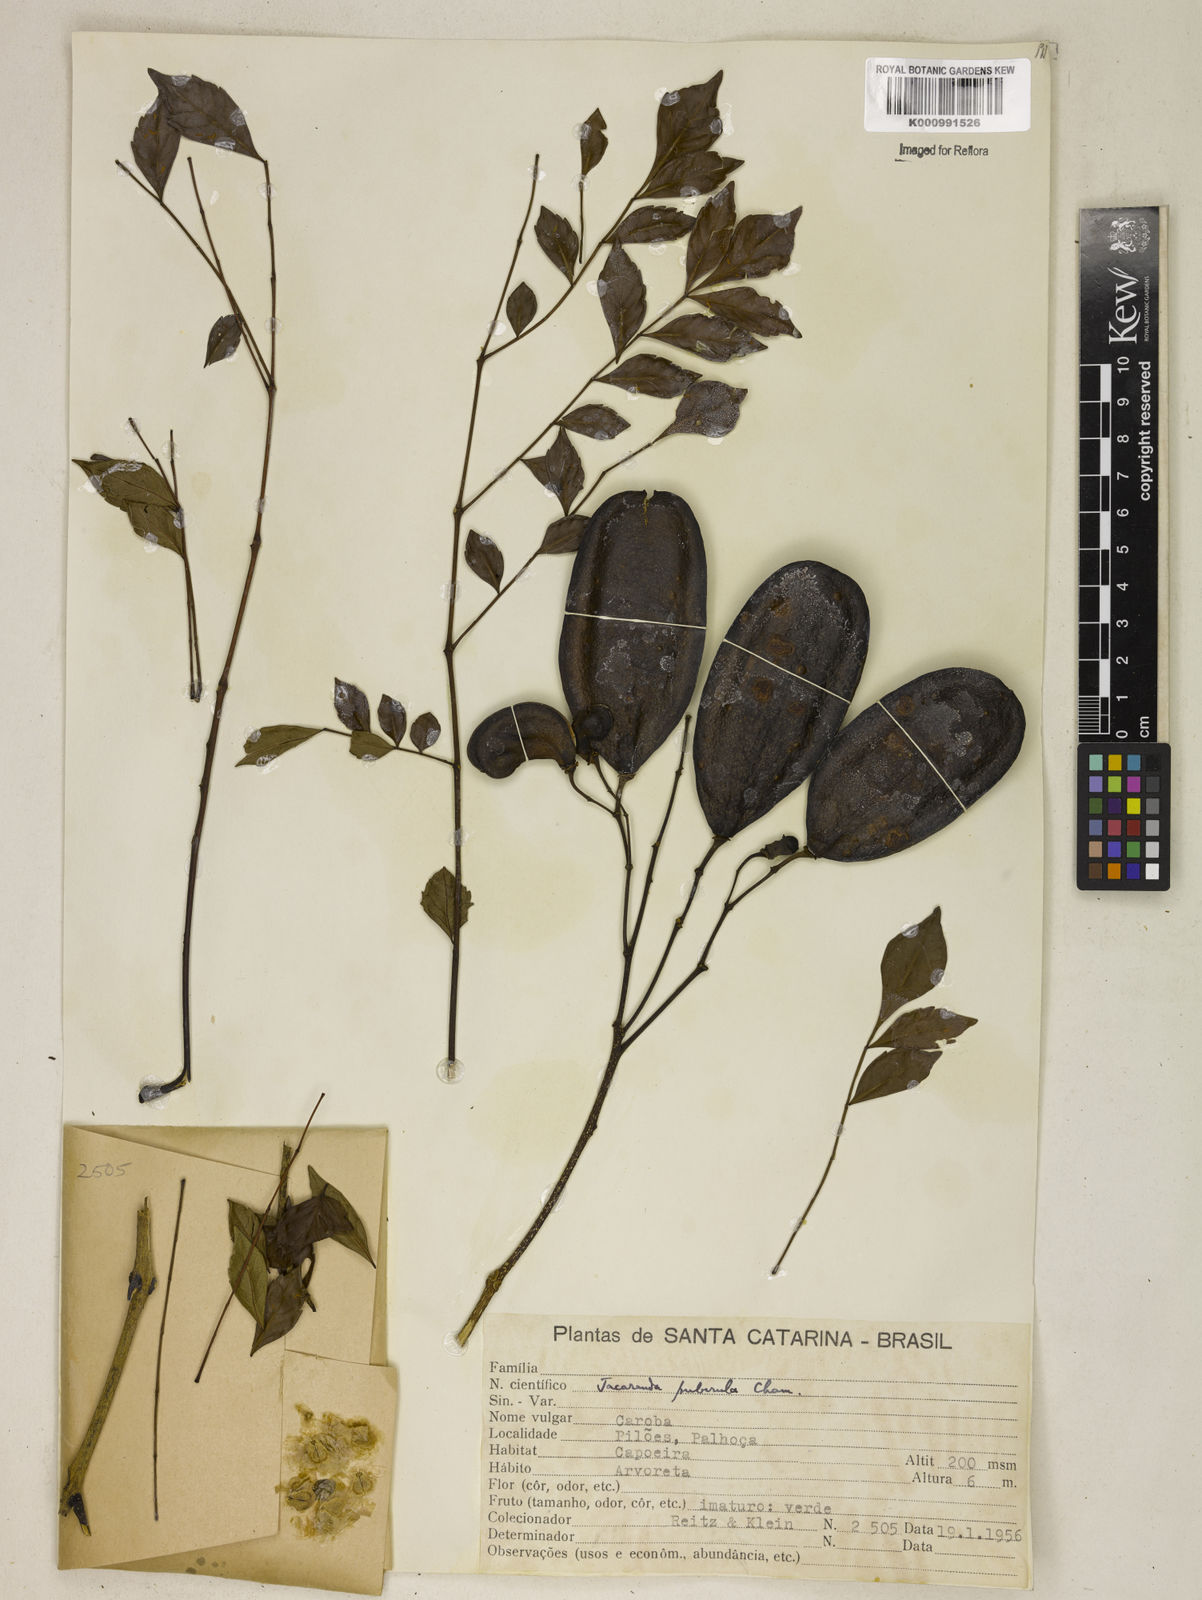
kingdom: Plantae
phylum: Tracheophyta
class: Magnoliopsida
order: Lamiales
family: Bignoniaceae
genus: Jacaranda
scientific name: Jacaranda puberula
